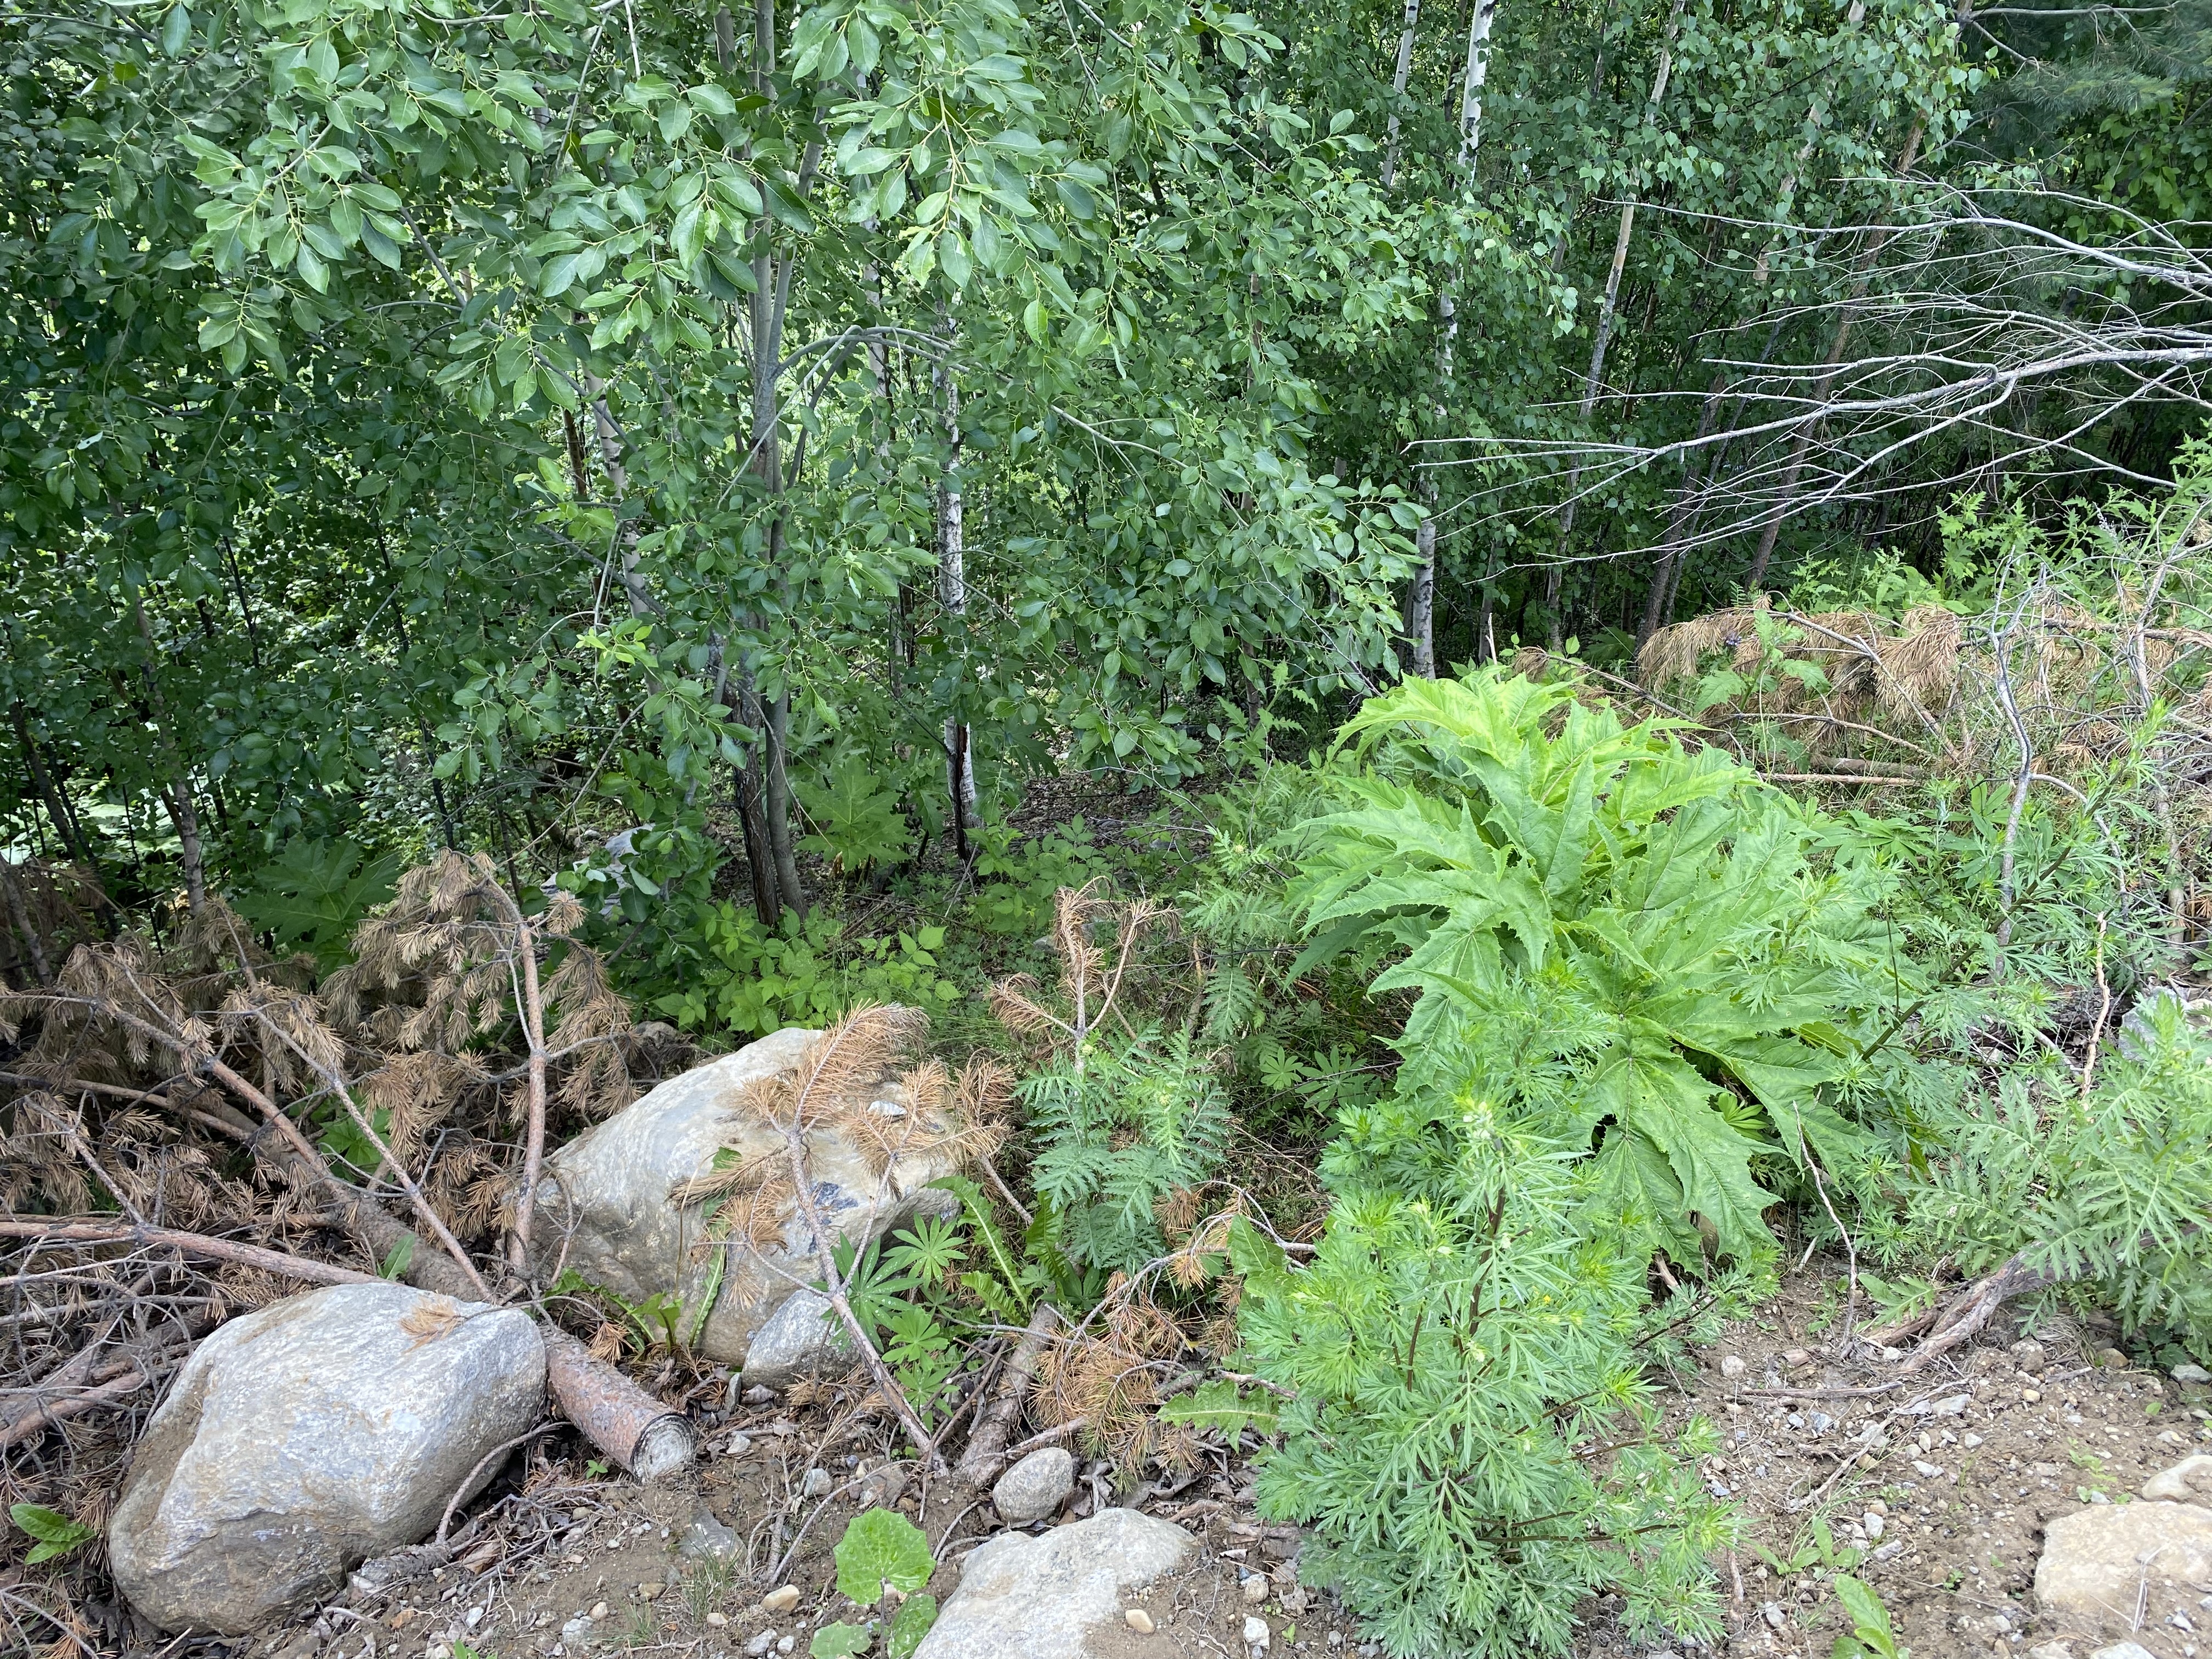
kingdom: Plantae
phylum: Tracheophyta
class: Magnoliopsida
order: Apiales
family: Apiaceae
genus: Heracleum
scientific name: Heracleum
